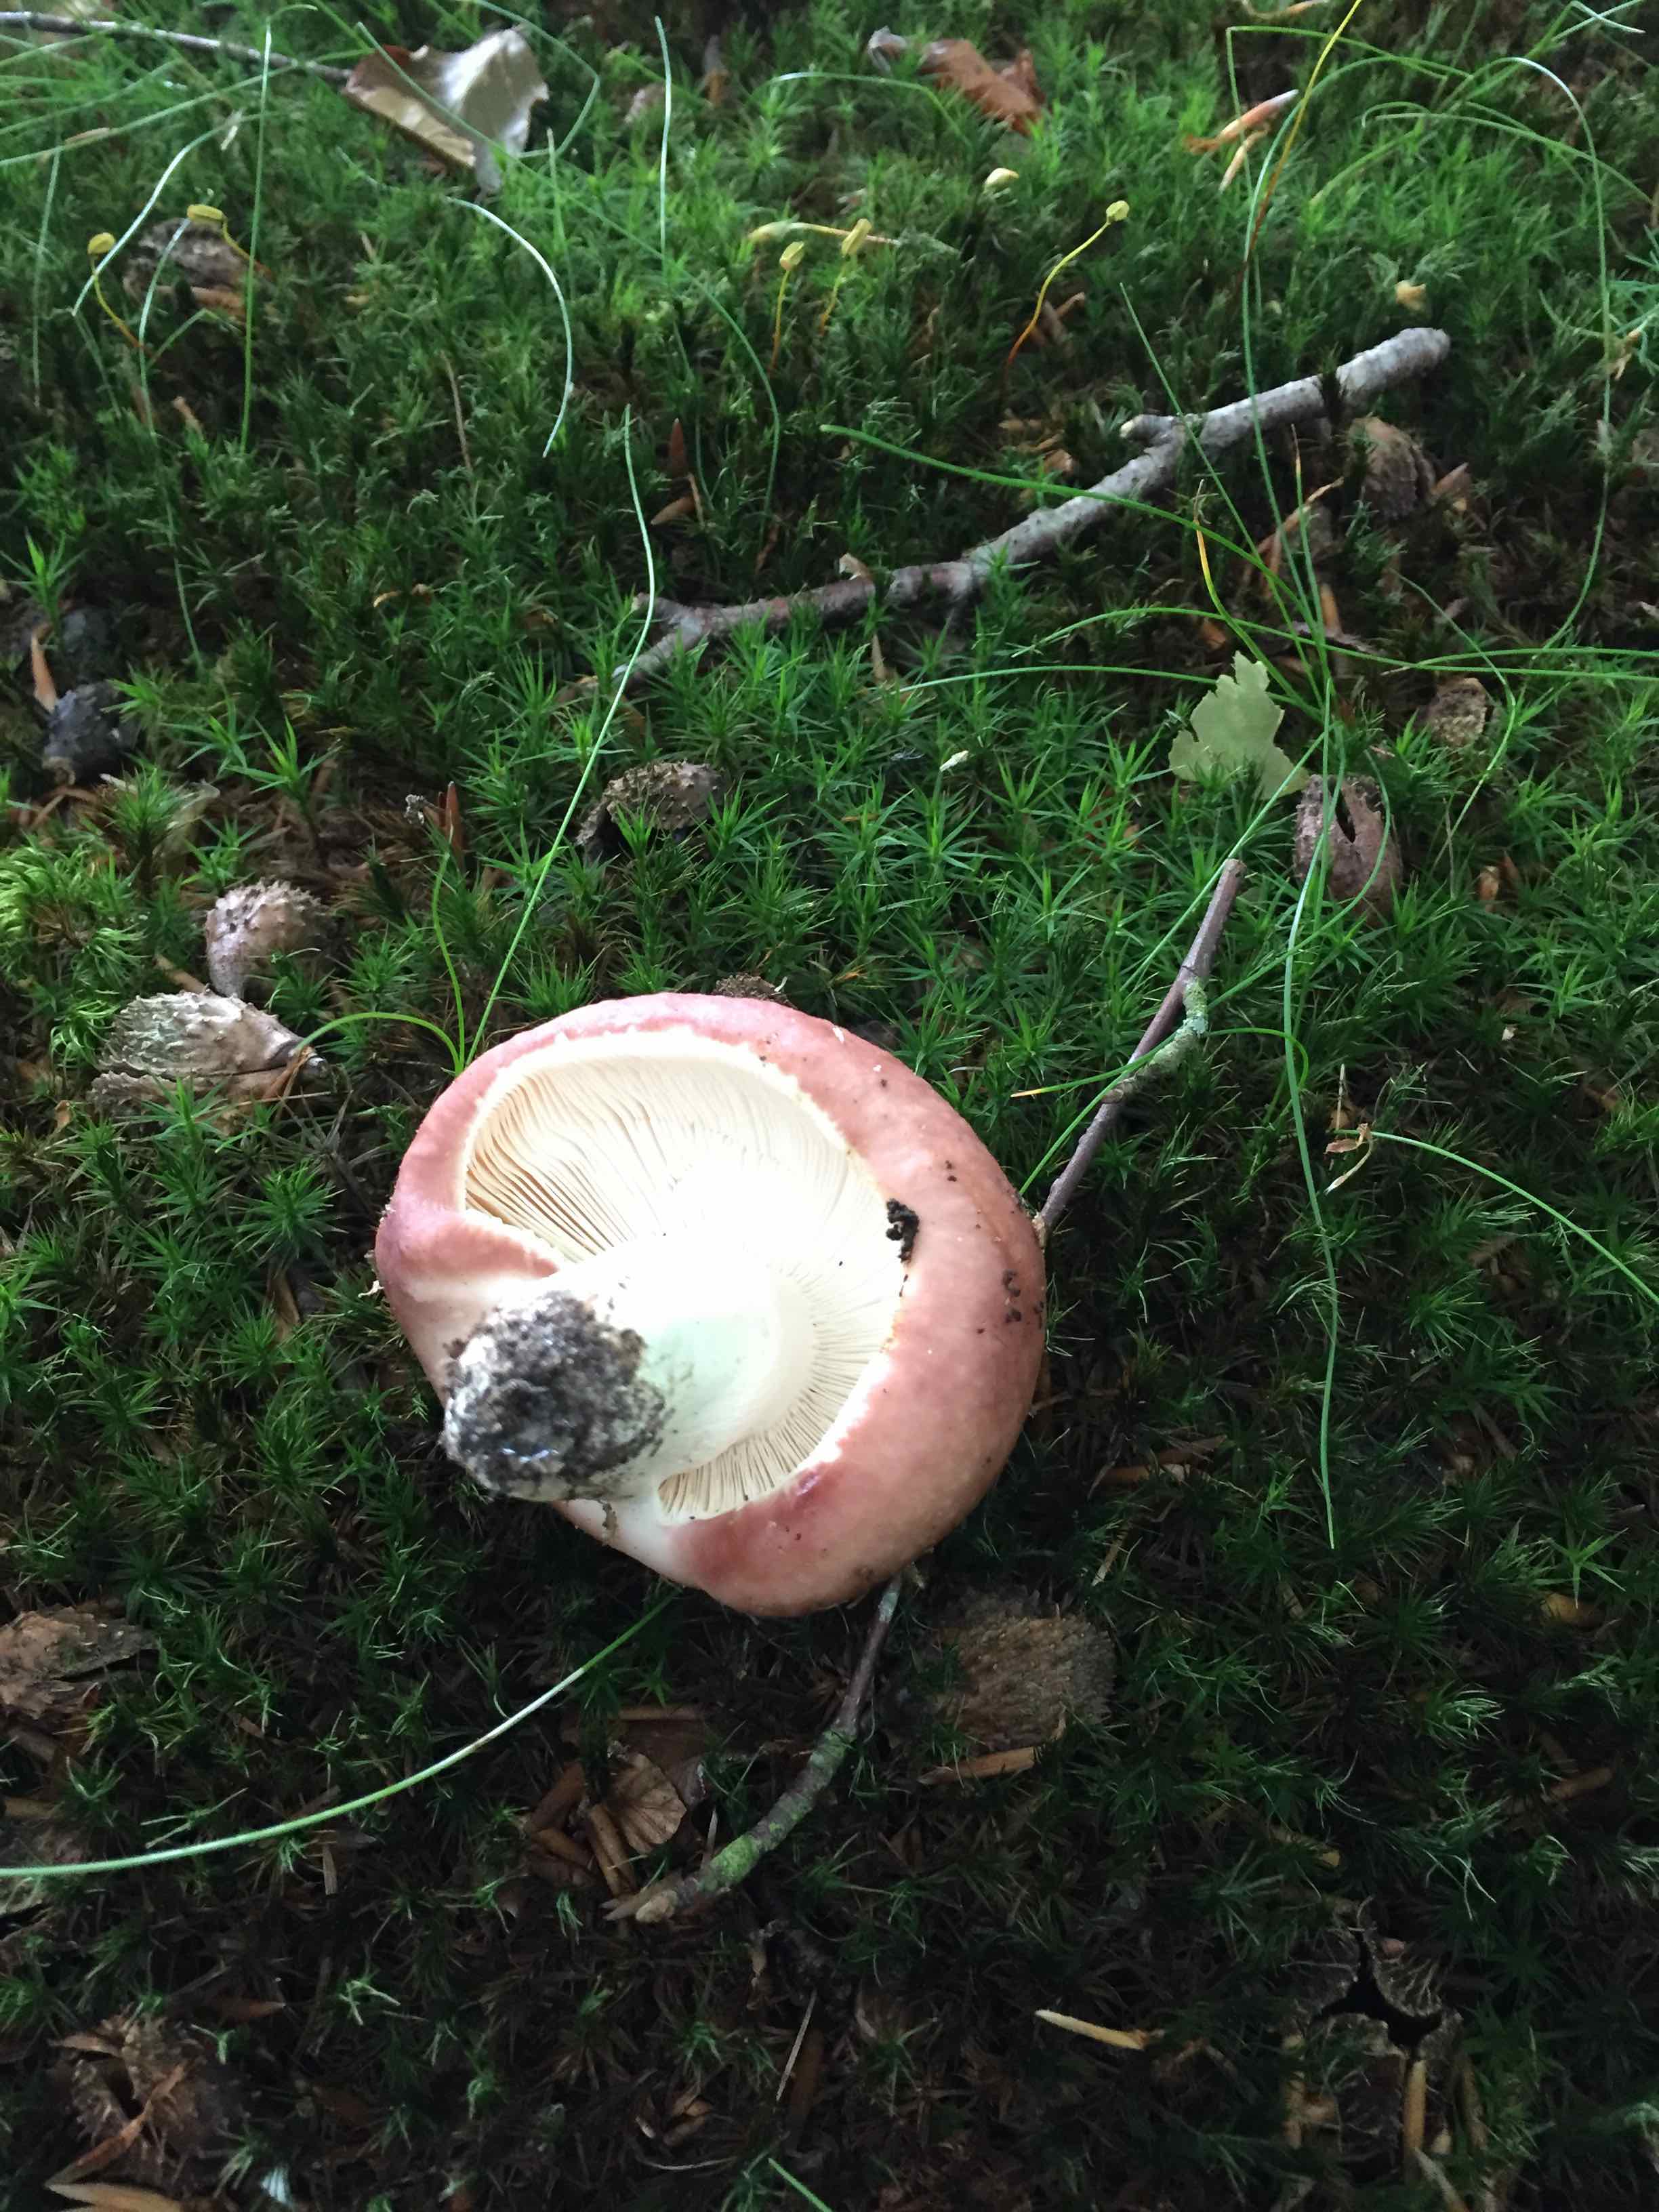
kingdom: Fungi
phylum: Basidiomycota
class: Agaricomycetes
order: Russulales
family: Russulaceae
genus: Russula
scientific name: Russula vesca
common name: spiselig skørhat
